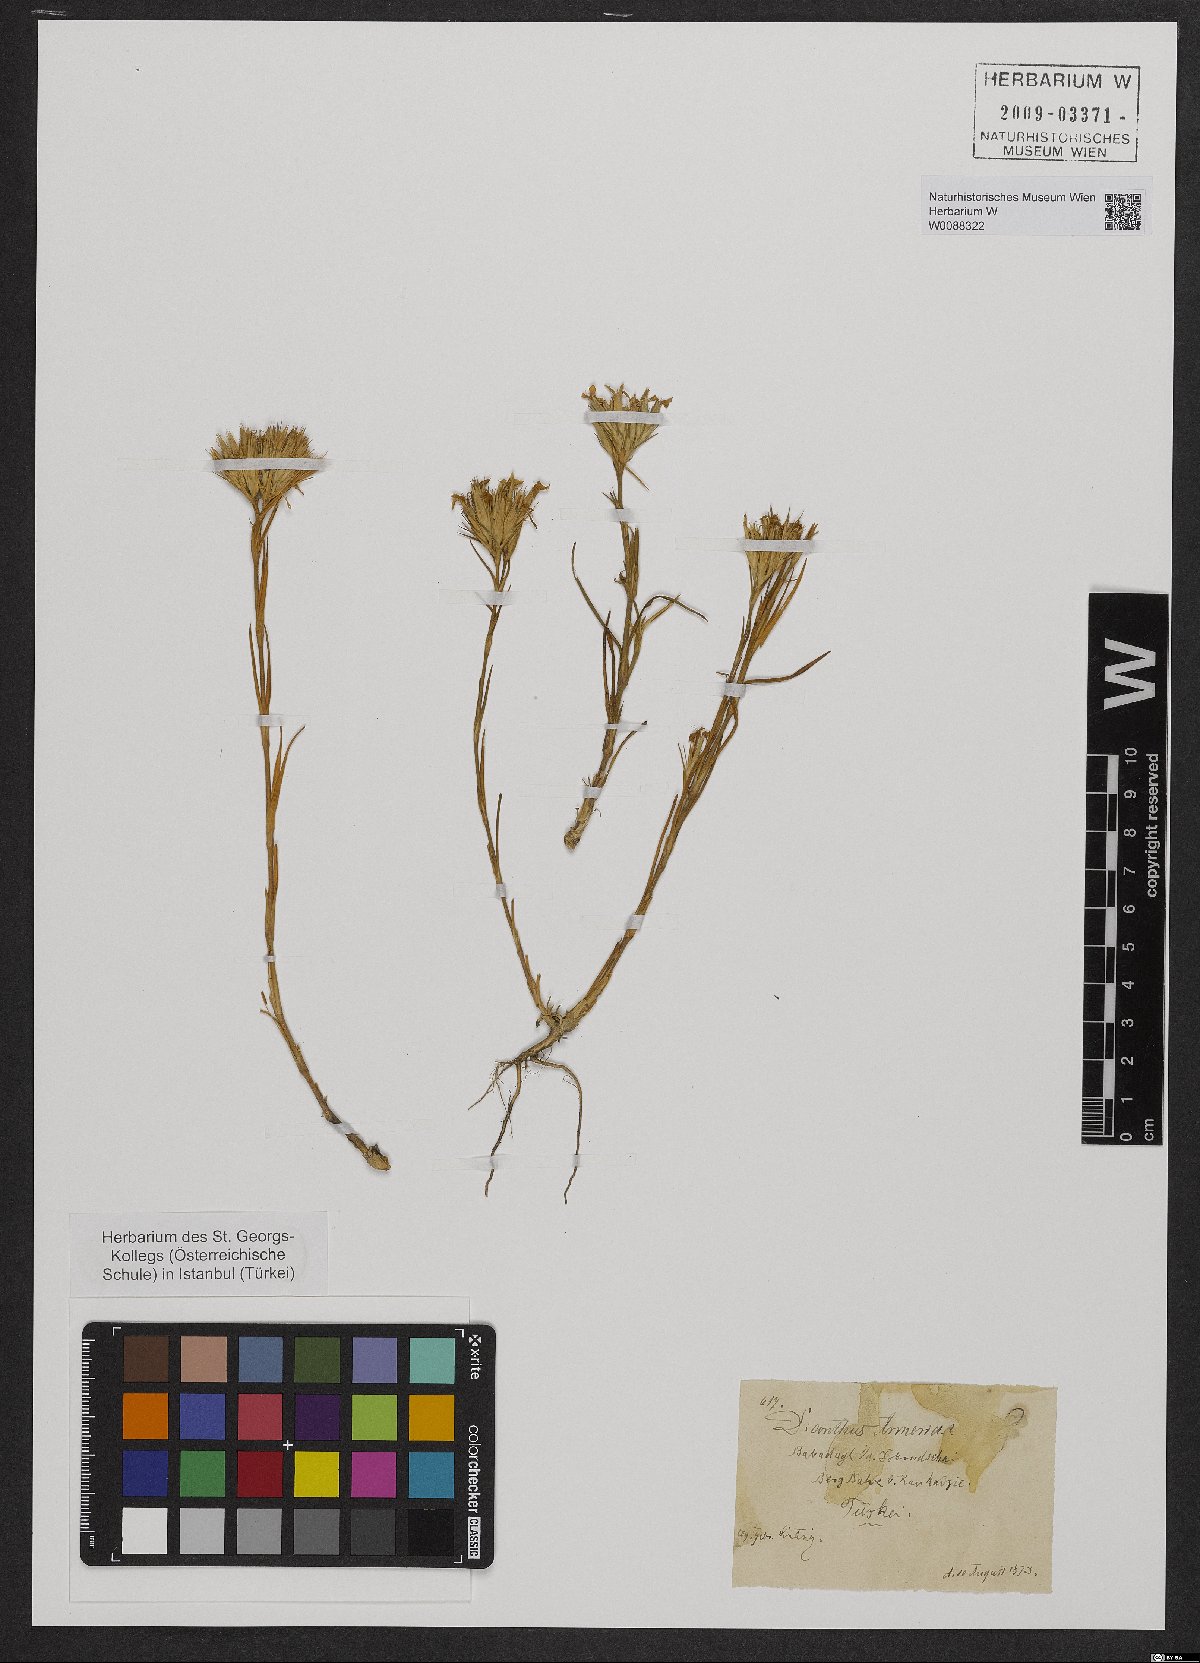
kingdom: Plantae
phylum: Tracheophyta
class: Magnoliopsida
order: Caryophyllales
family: Caryophyllaceae
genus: Dianthus
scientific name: Dianthus armeria
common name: Deptford pink
